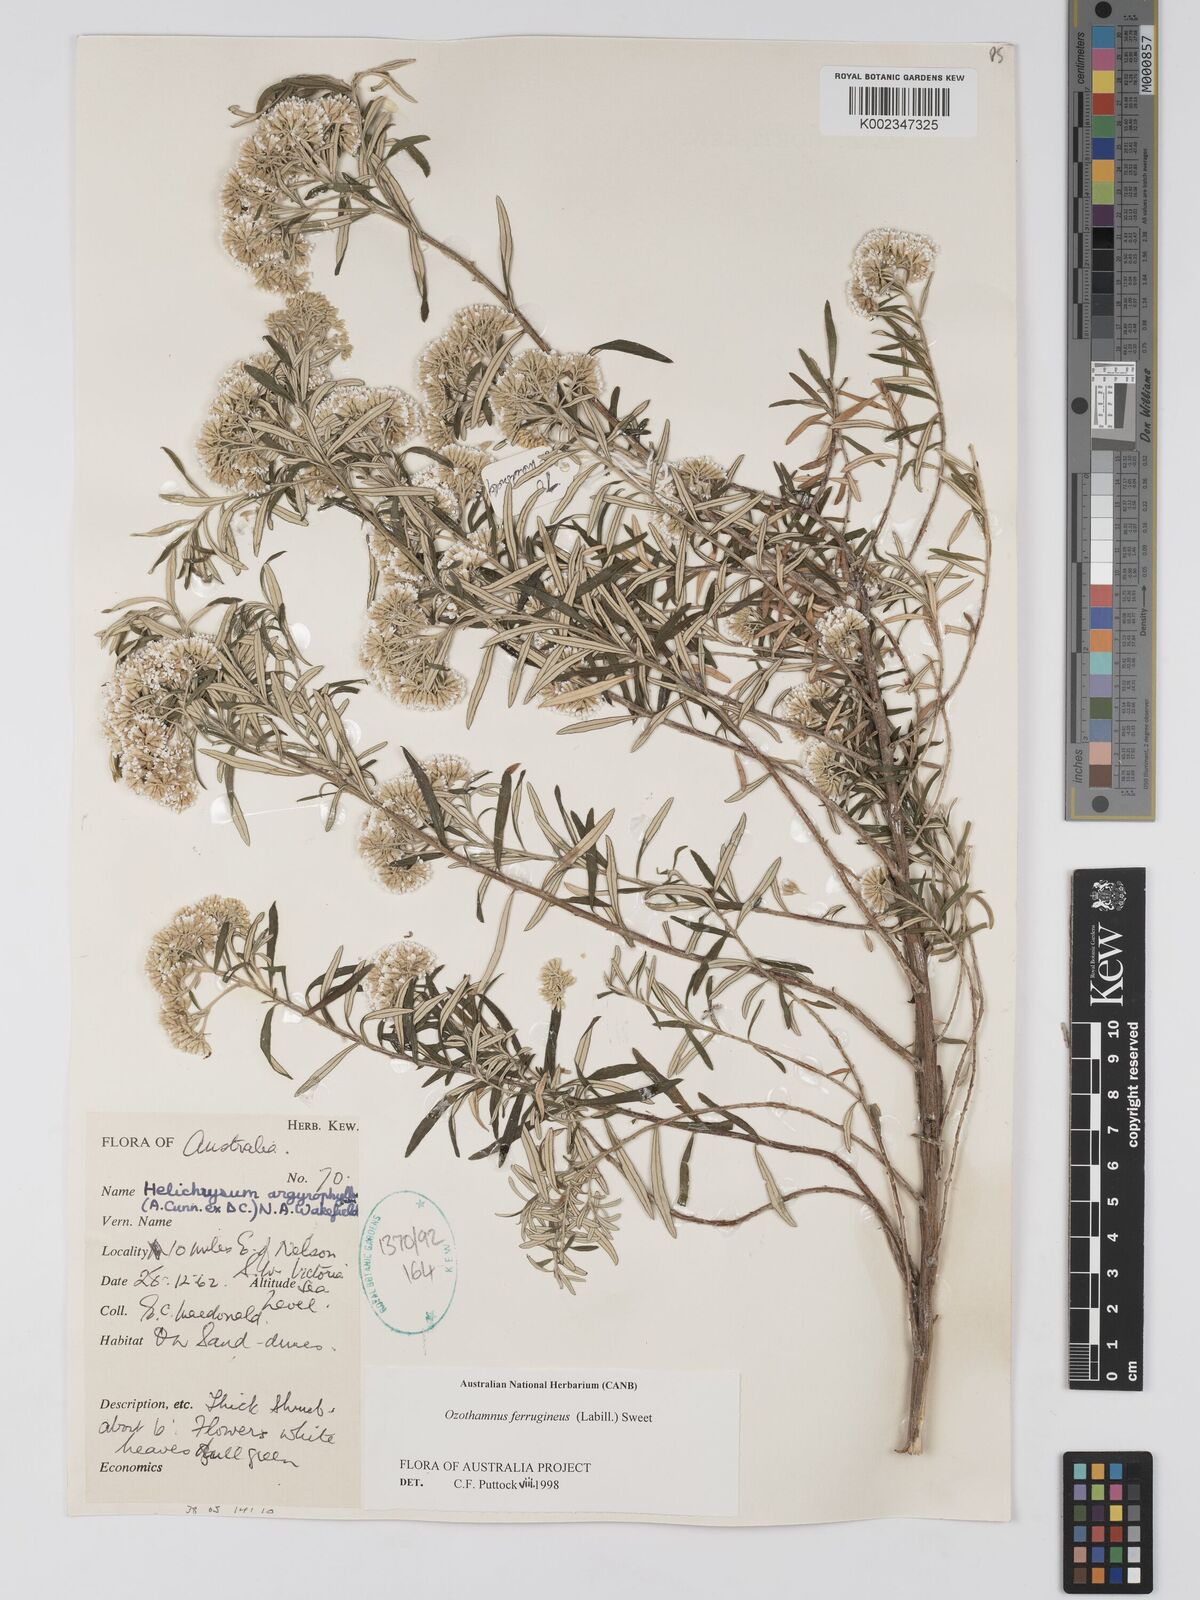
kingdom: Plantae
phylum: Tracheophyta
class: Magnoliopsida
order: Asterales
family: Asteraceae
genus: Ozothamnus
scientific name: Ozothamnus ferrugineus
